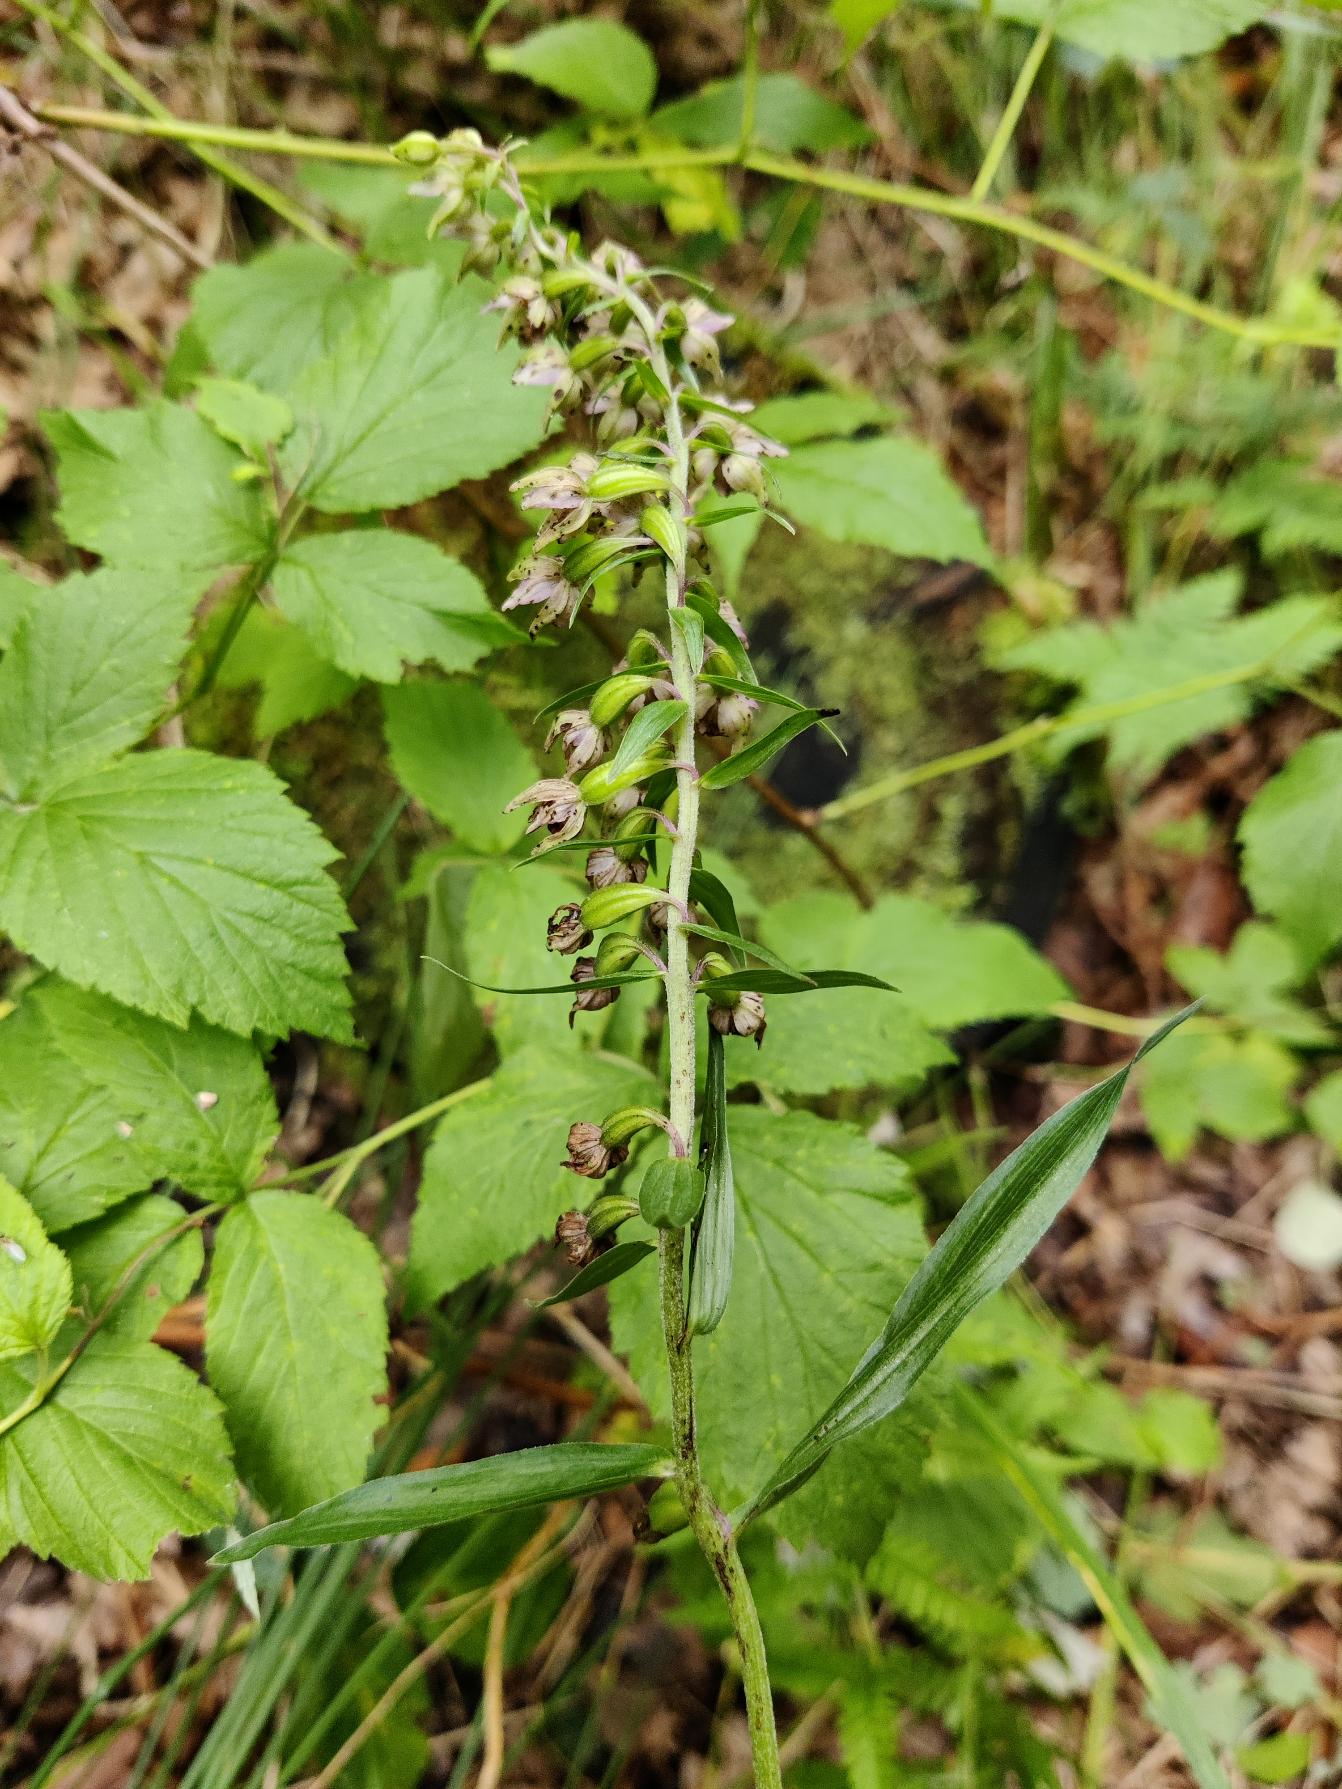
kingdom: Plantae
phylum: Tracheophyta
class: Liliopsida
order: Asparagales
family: Orchidaceae
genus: Epipactis
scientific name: Epipactis helleborine
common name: Skov-hullæbe
